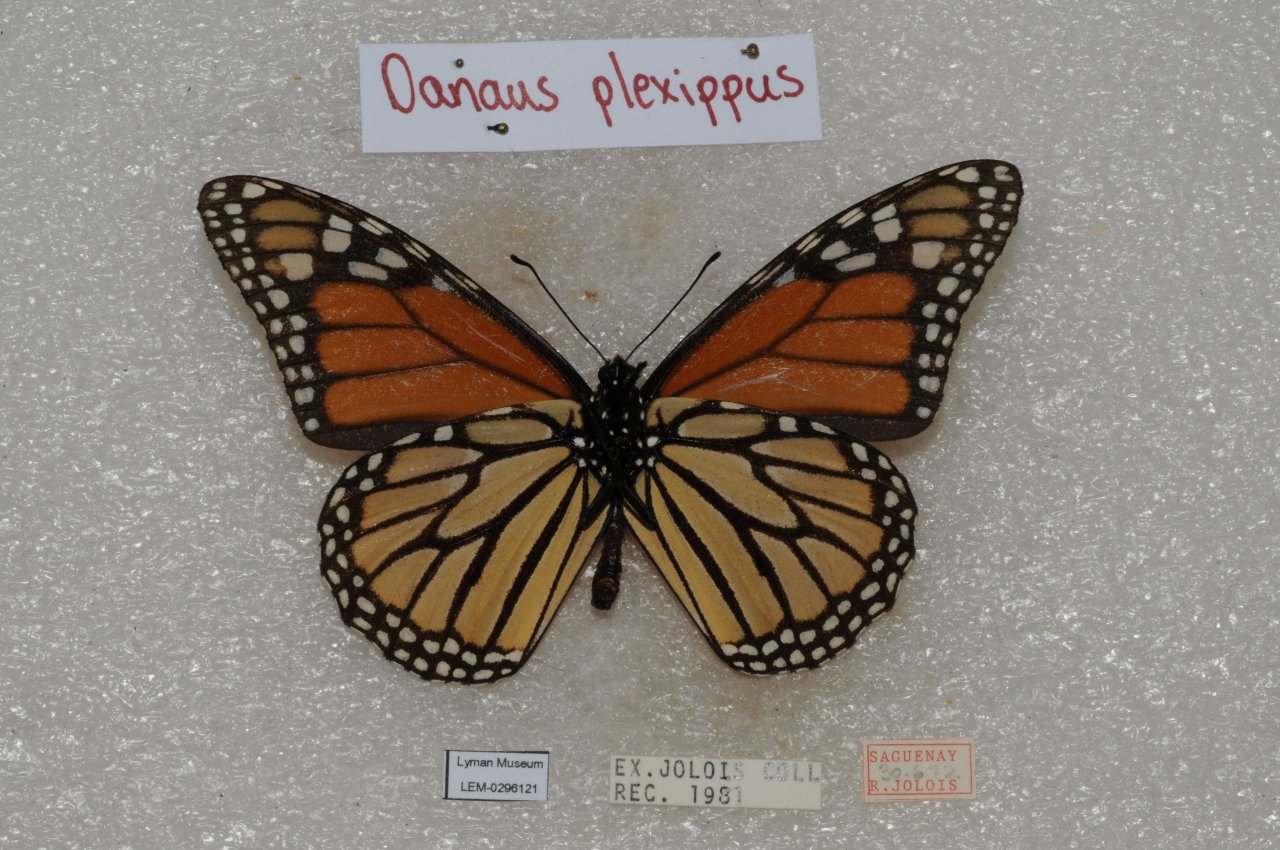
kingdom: Animalia
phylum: Arthropoda
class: Insecta
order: Lepidoptera
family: Nymphalidae
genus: Danaus
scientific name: Danaus plexippus
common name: Monarch
